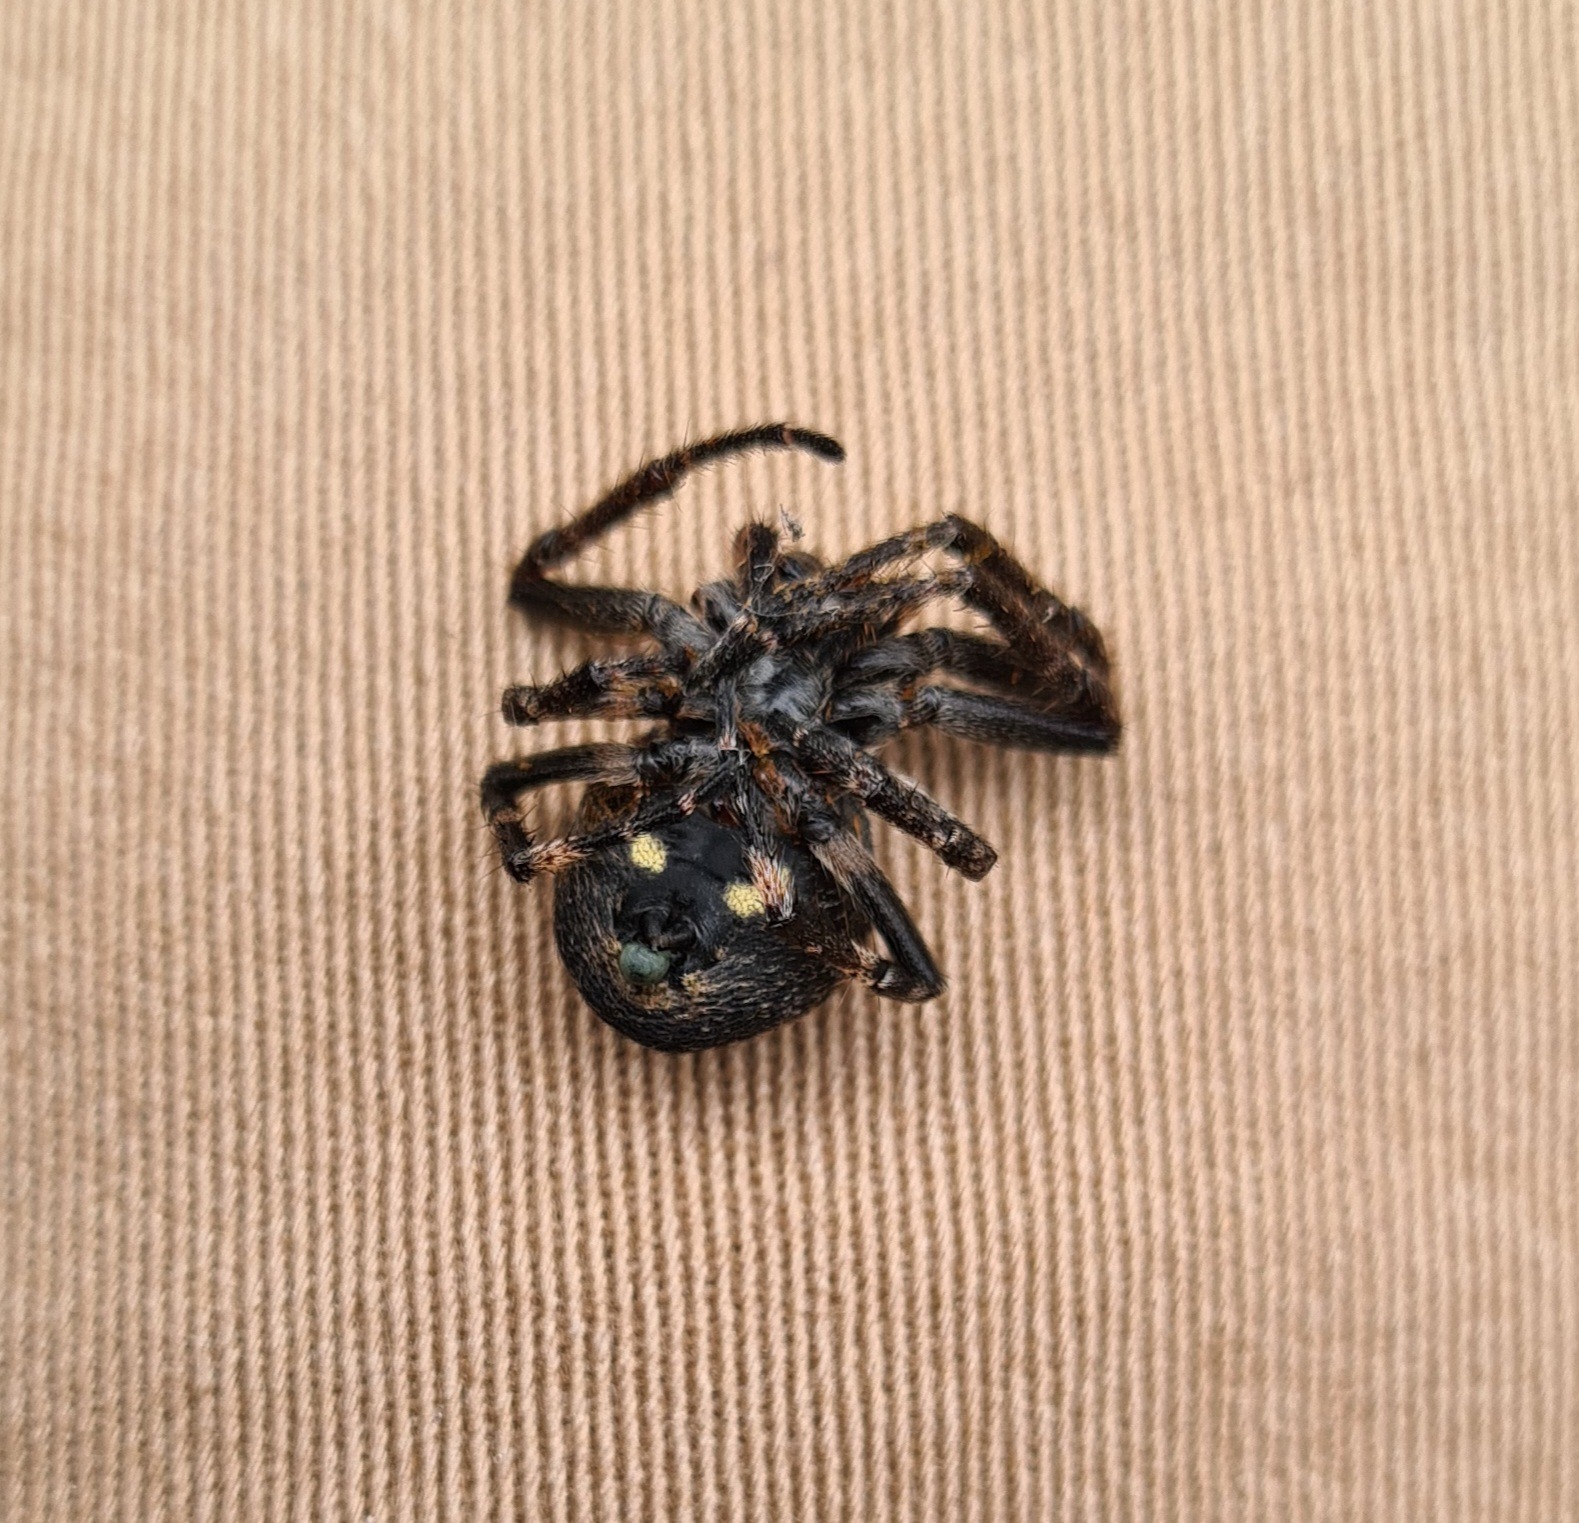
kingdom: Animalia
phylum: Arthropoda
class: Arachnida
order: Araneae
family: Araneidae
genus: Nuctenea
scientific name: Nuctenea umbratica
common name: Flad hjulspinder
